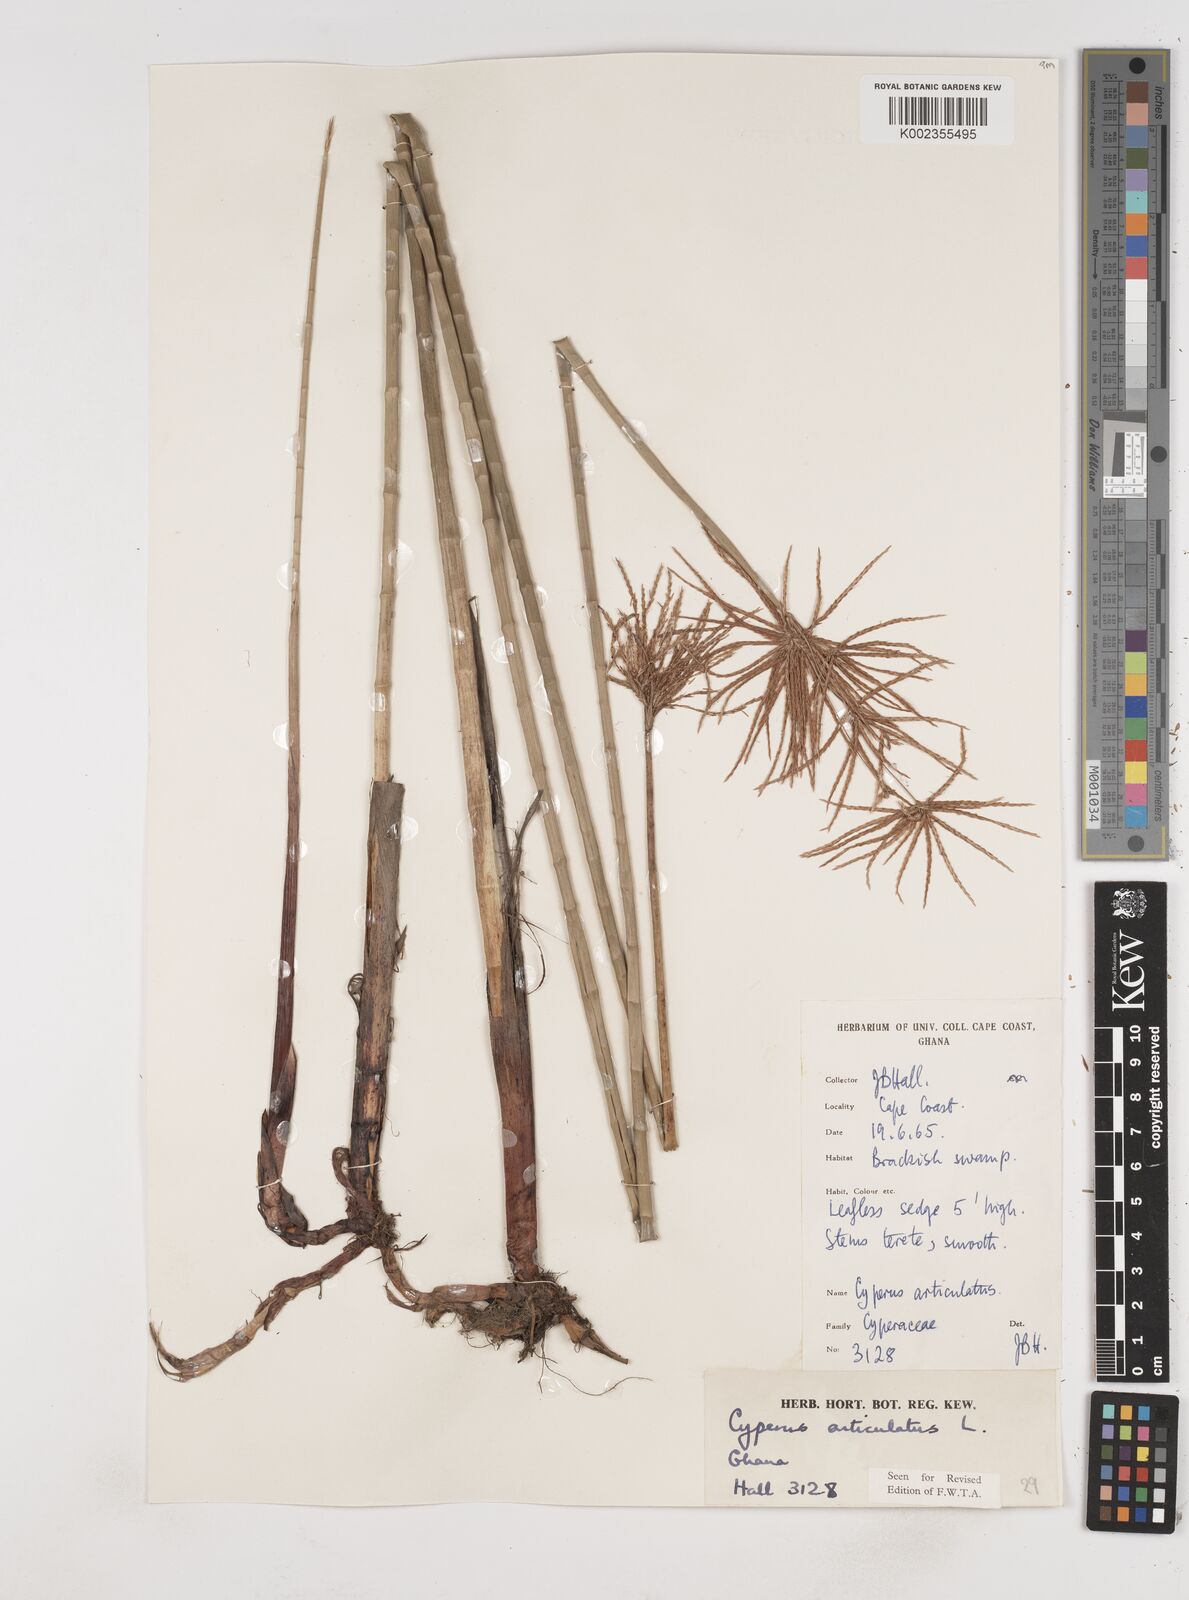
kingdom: Plantae
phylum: Tracheophyta
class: Liliopsida
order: Poales
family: Cyperaceae
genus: Cyperus
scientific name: Cyperus articulatus
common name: Jointed flatsedge
